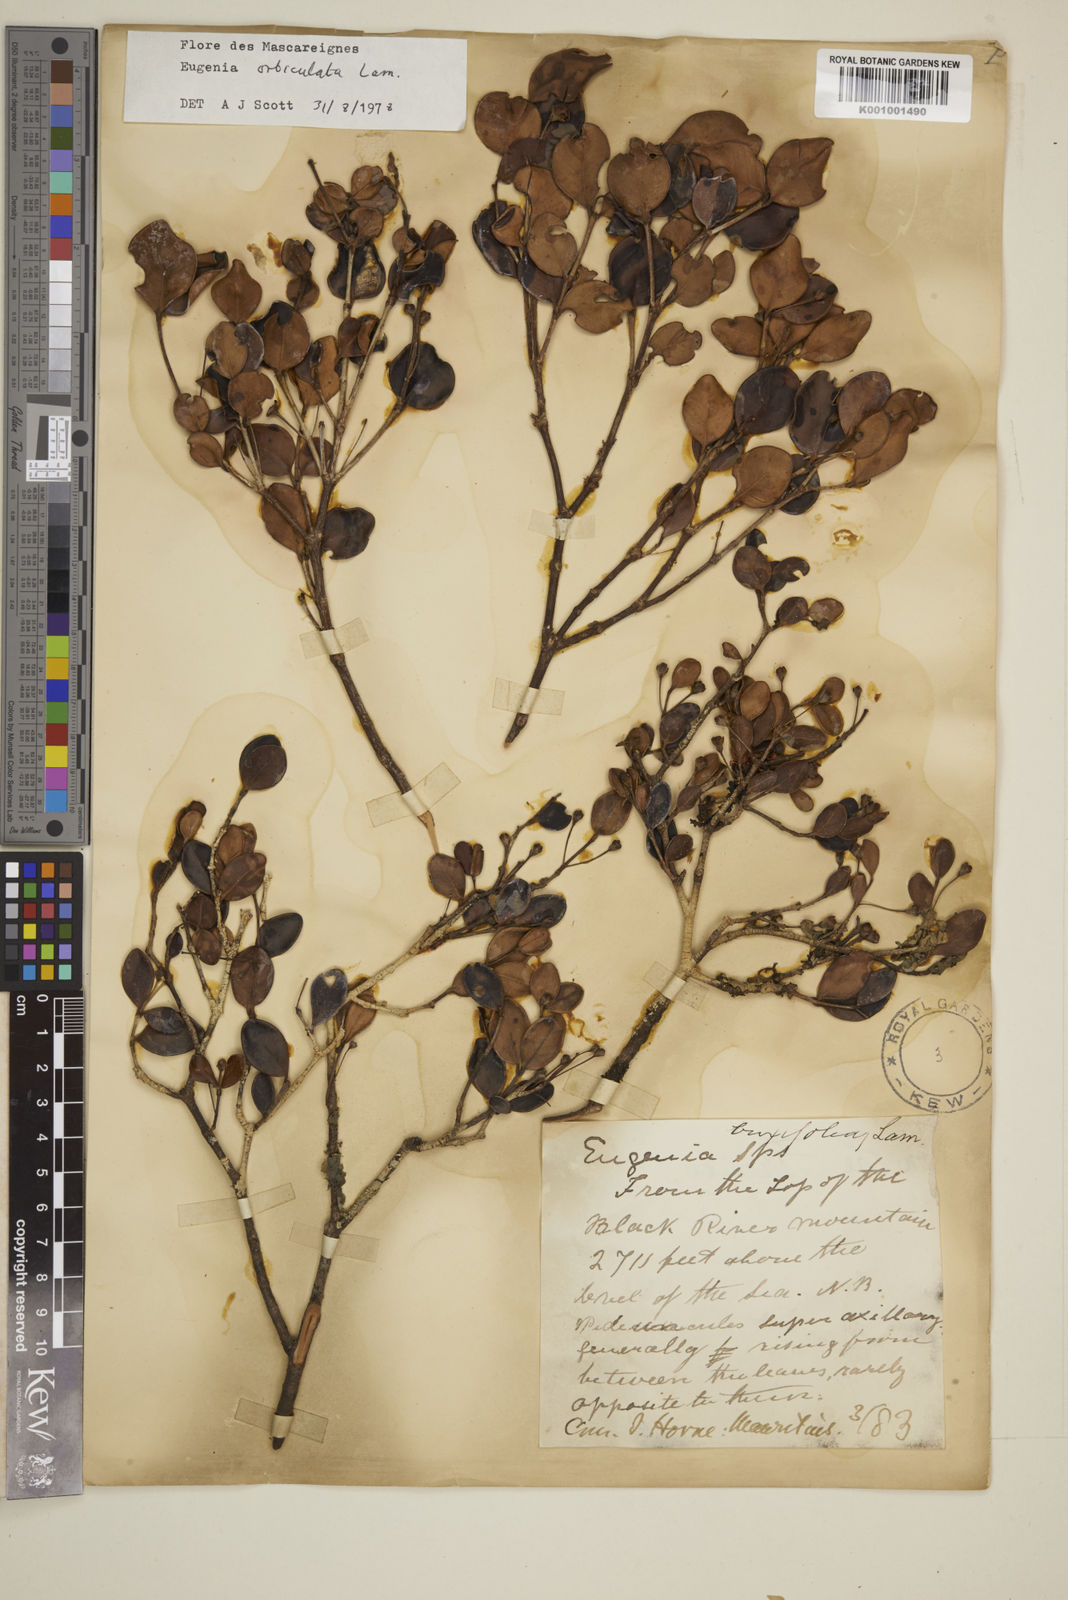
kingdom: Plantae
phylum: Tracheophyta
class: Magnoliopsida
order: Myrtales
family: Myrtaceae
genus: Eugenia
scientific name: Eugenia orbiculata
